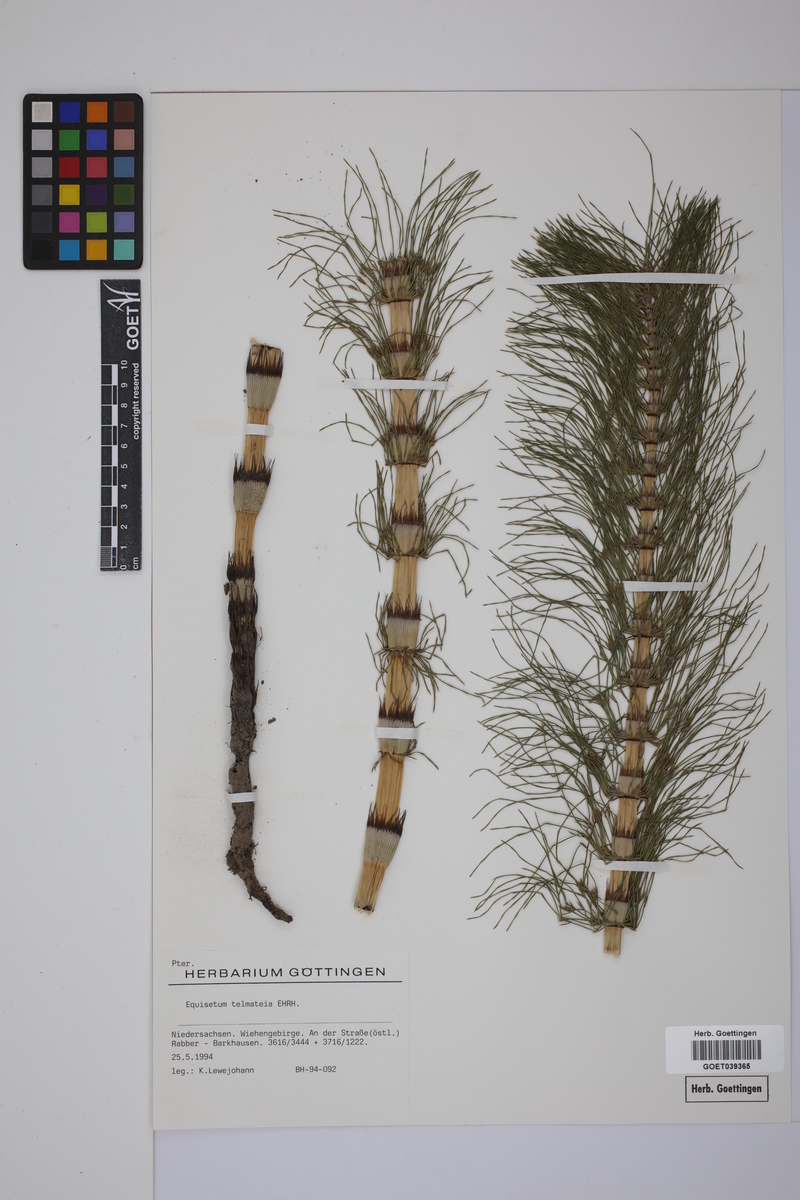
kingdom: Plantae
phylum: Tracheophyta
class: Polypodiopsida
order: Equisetales
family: Equisetaceae
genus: Equisetum
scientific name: Equisetum telmateia
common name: Great horsetail
